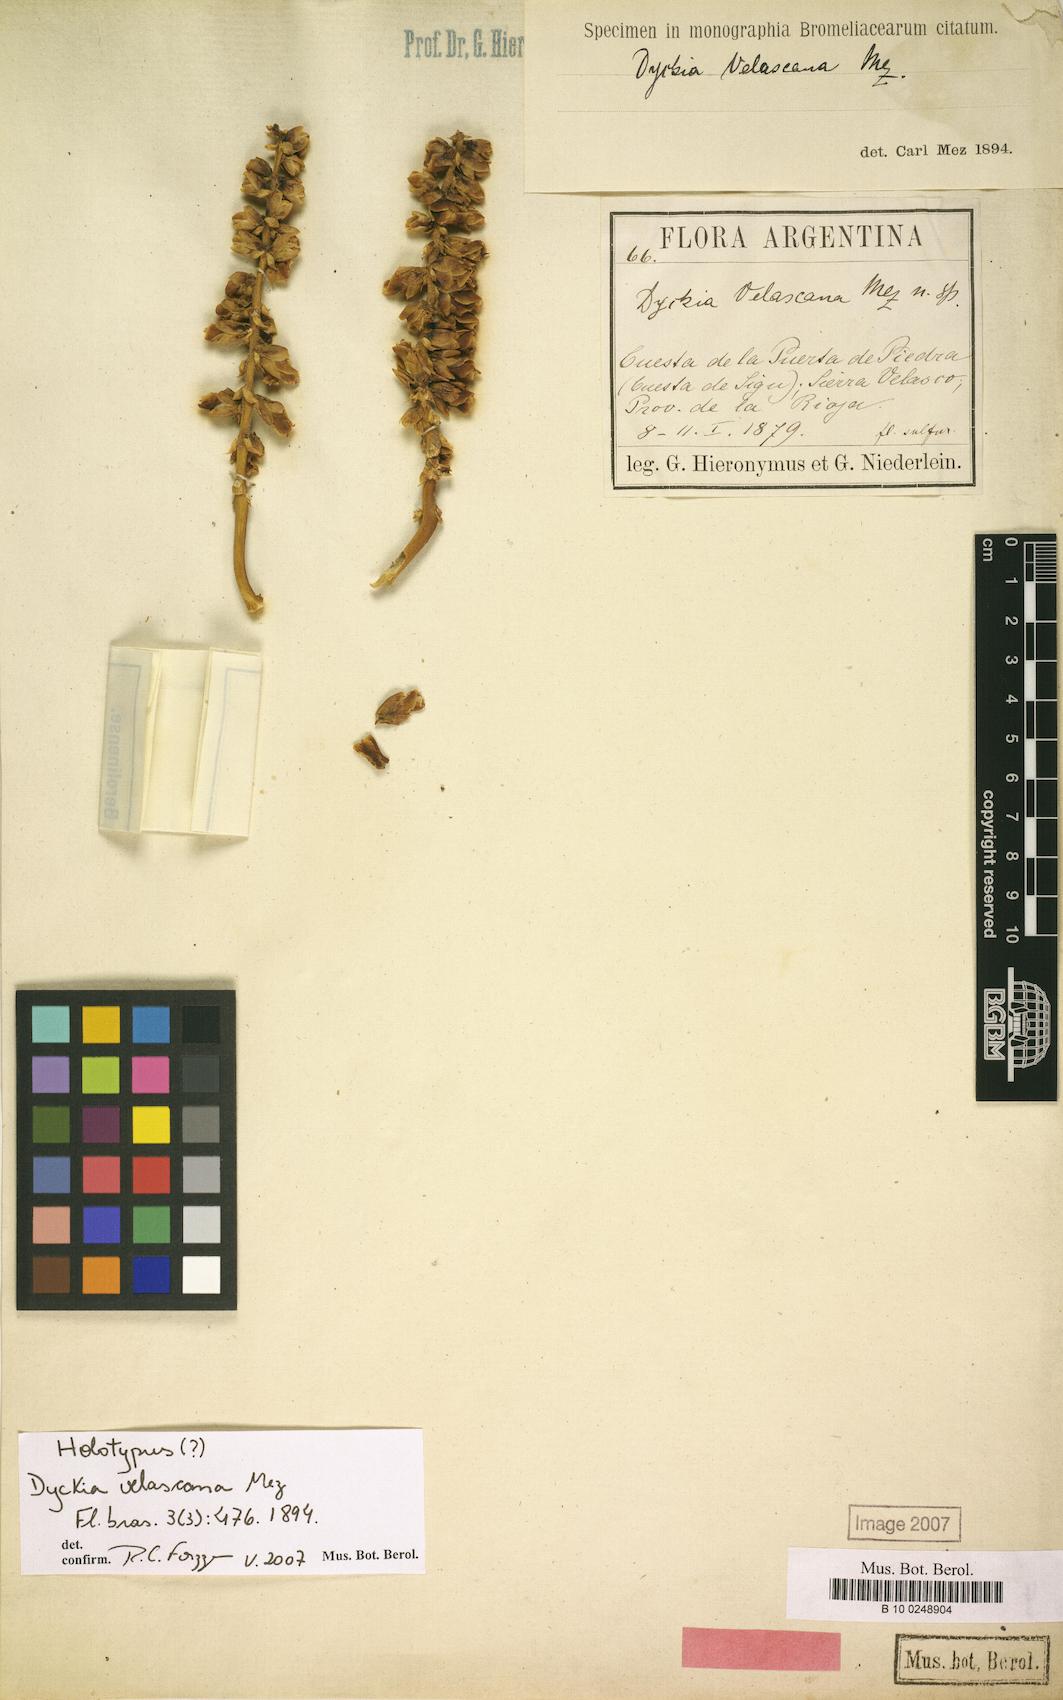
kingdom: Plantae
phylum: Tracheophyta
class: Liliopsida
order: Poales
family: Bromeliaceae
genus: Dyckia
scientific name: Dyckia velascana
